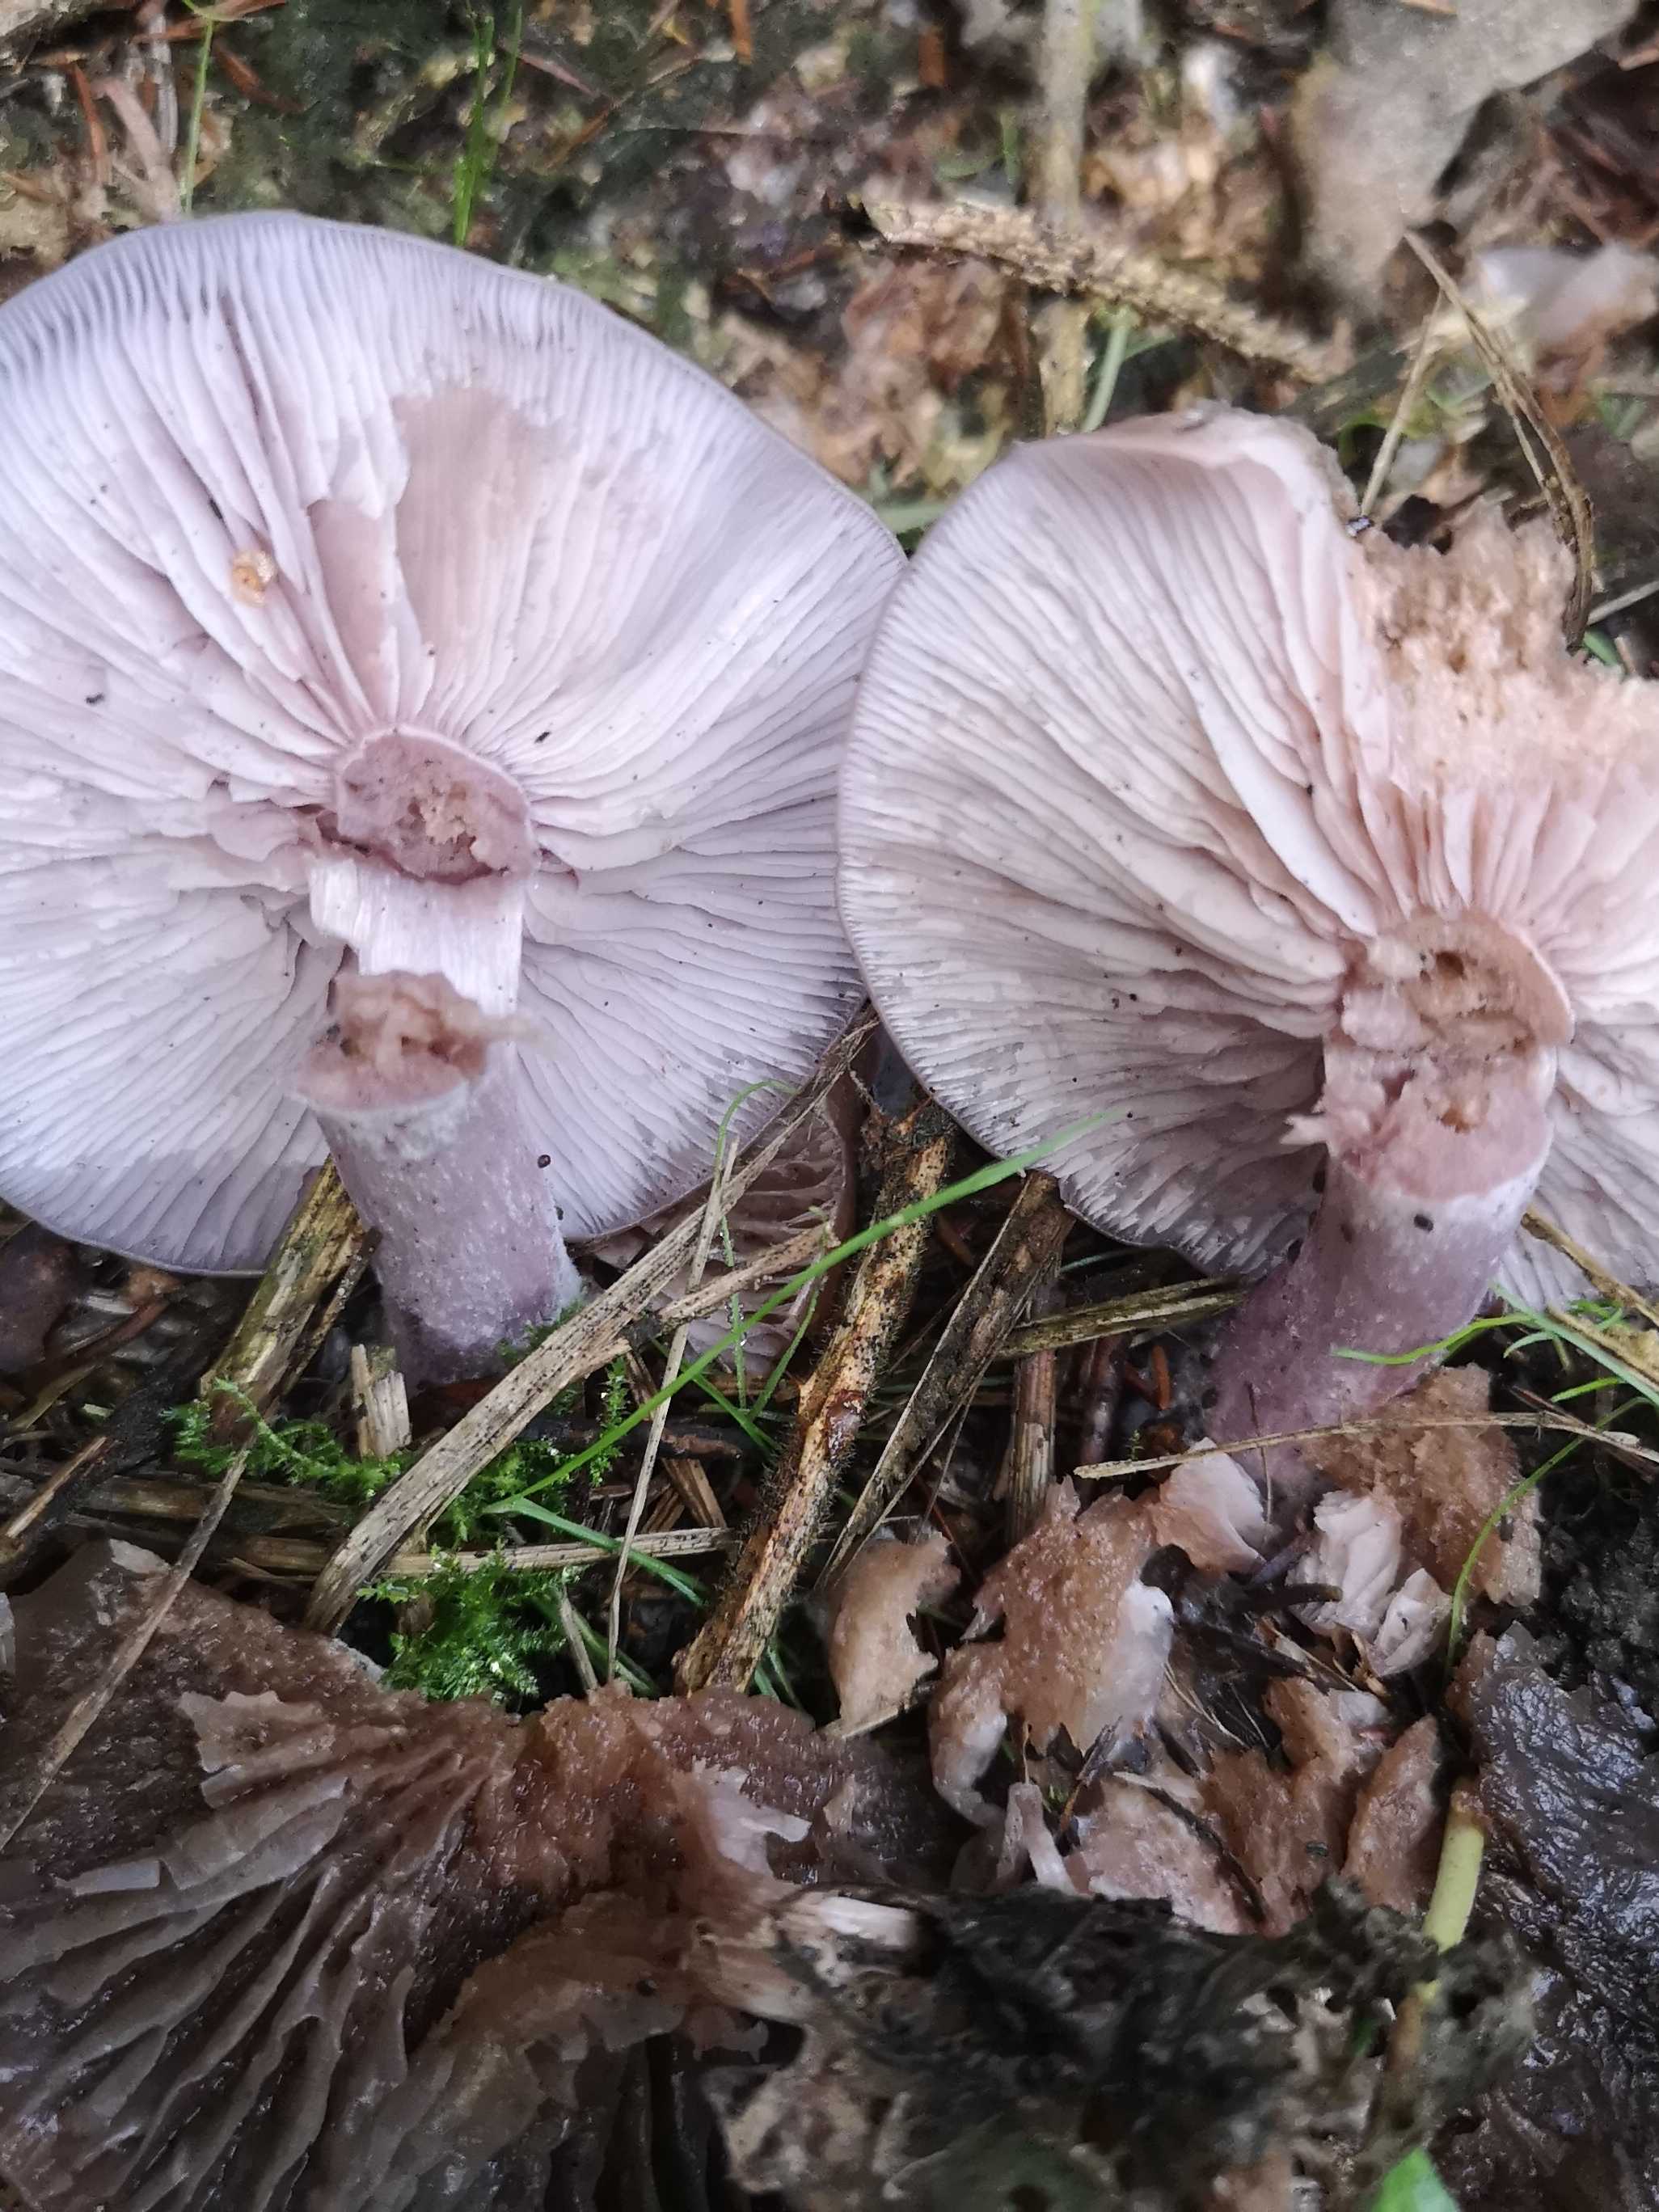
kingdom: Fungi
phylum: Basidiomycota
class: Agaricomycetes
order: Agaricales
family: Tricholomataceae
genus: Lepista
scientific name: Lepista nuda
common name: violet hekseringshat
